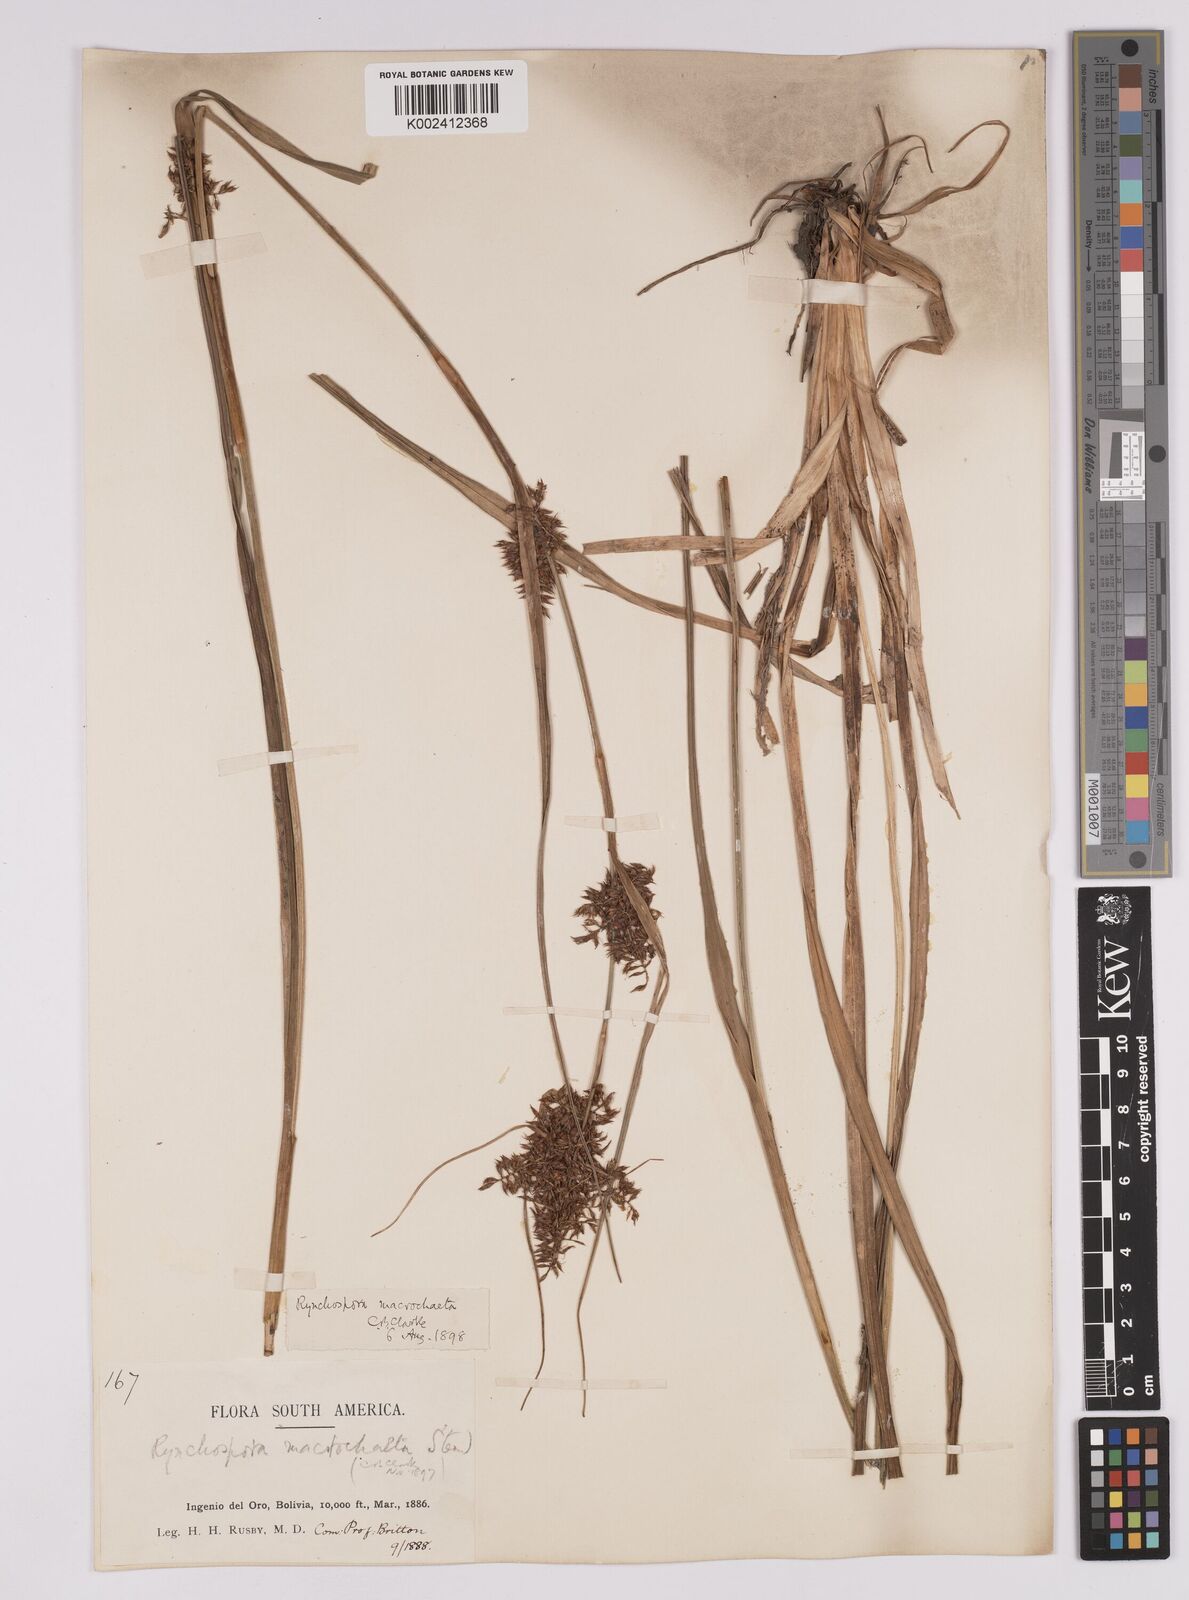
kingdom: Plantae
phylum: Tracheophyta
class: Liliopsida
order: Poales
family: Cyperaceae
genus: Rhynchospora
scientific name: Rhynchospora macrochaeta
